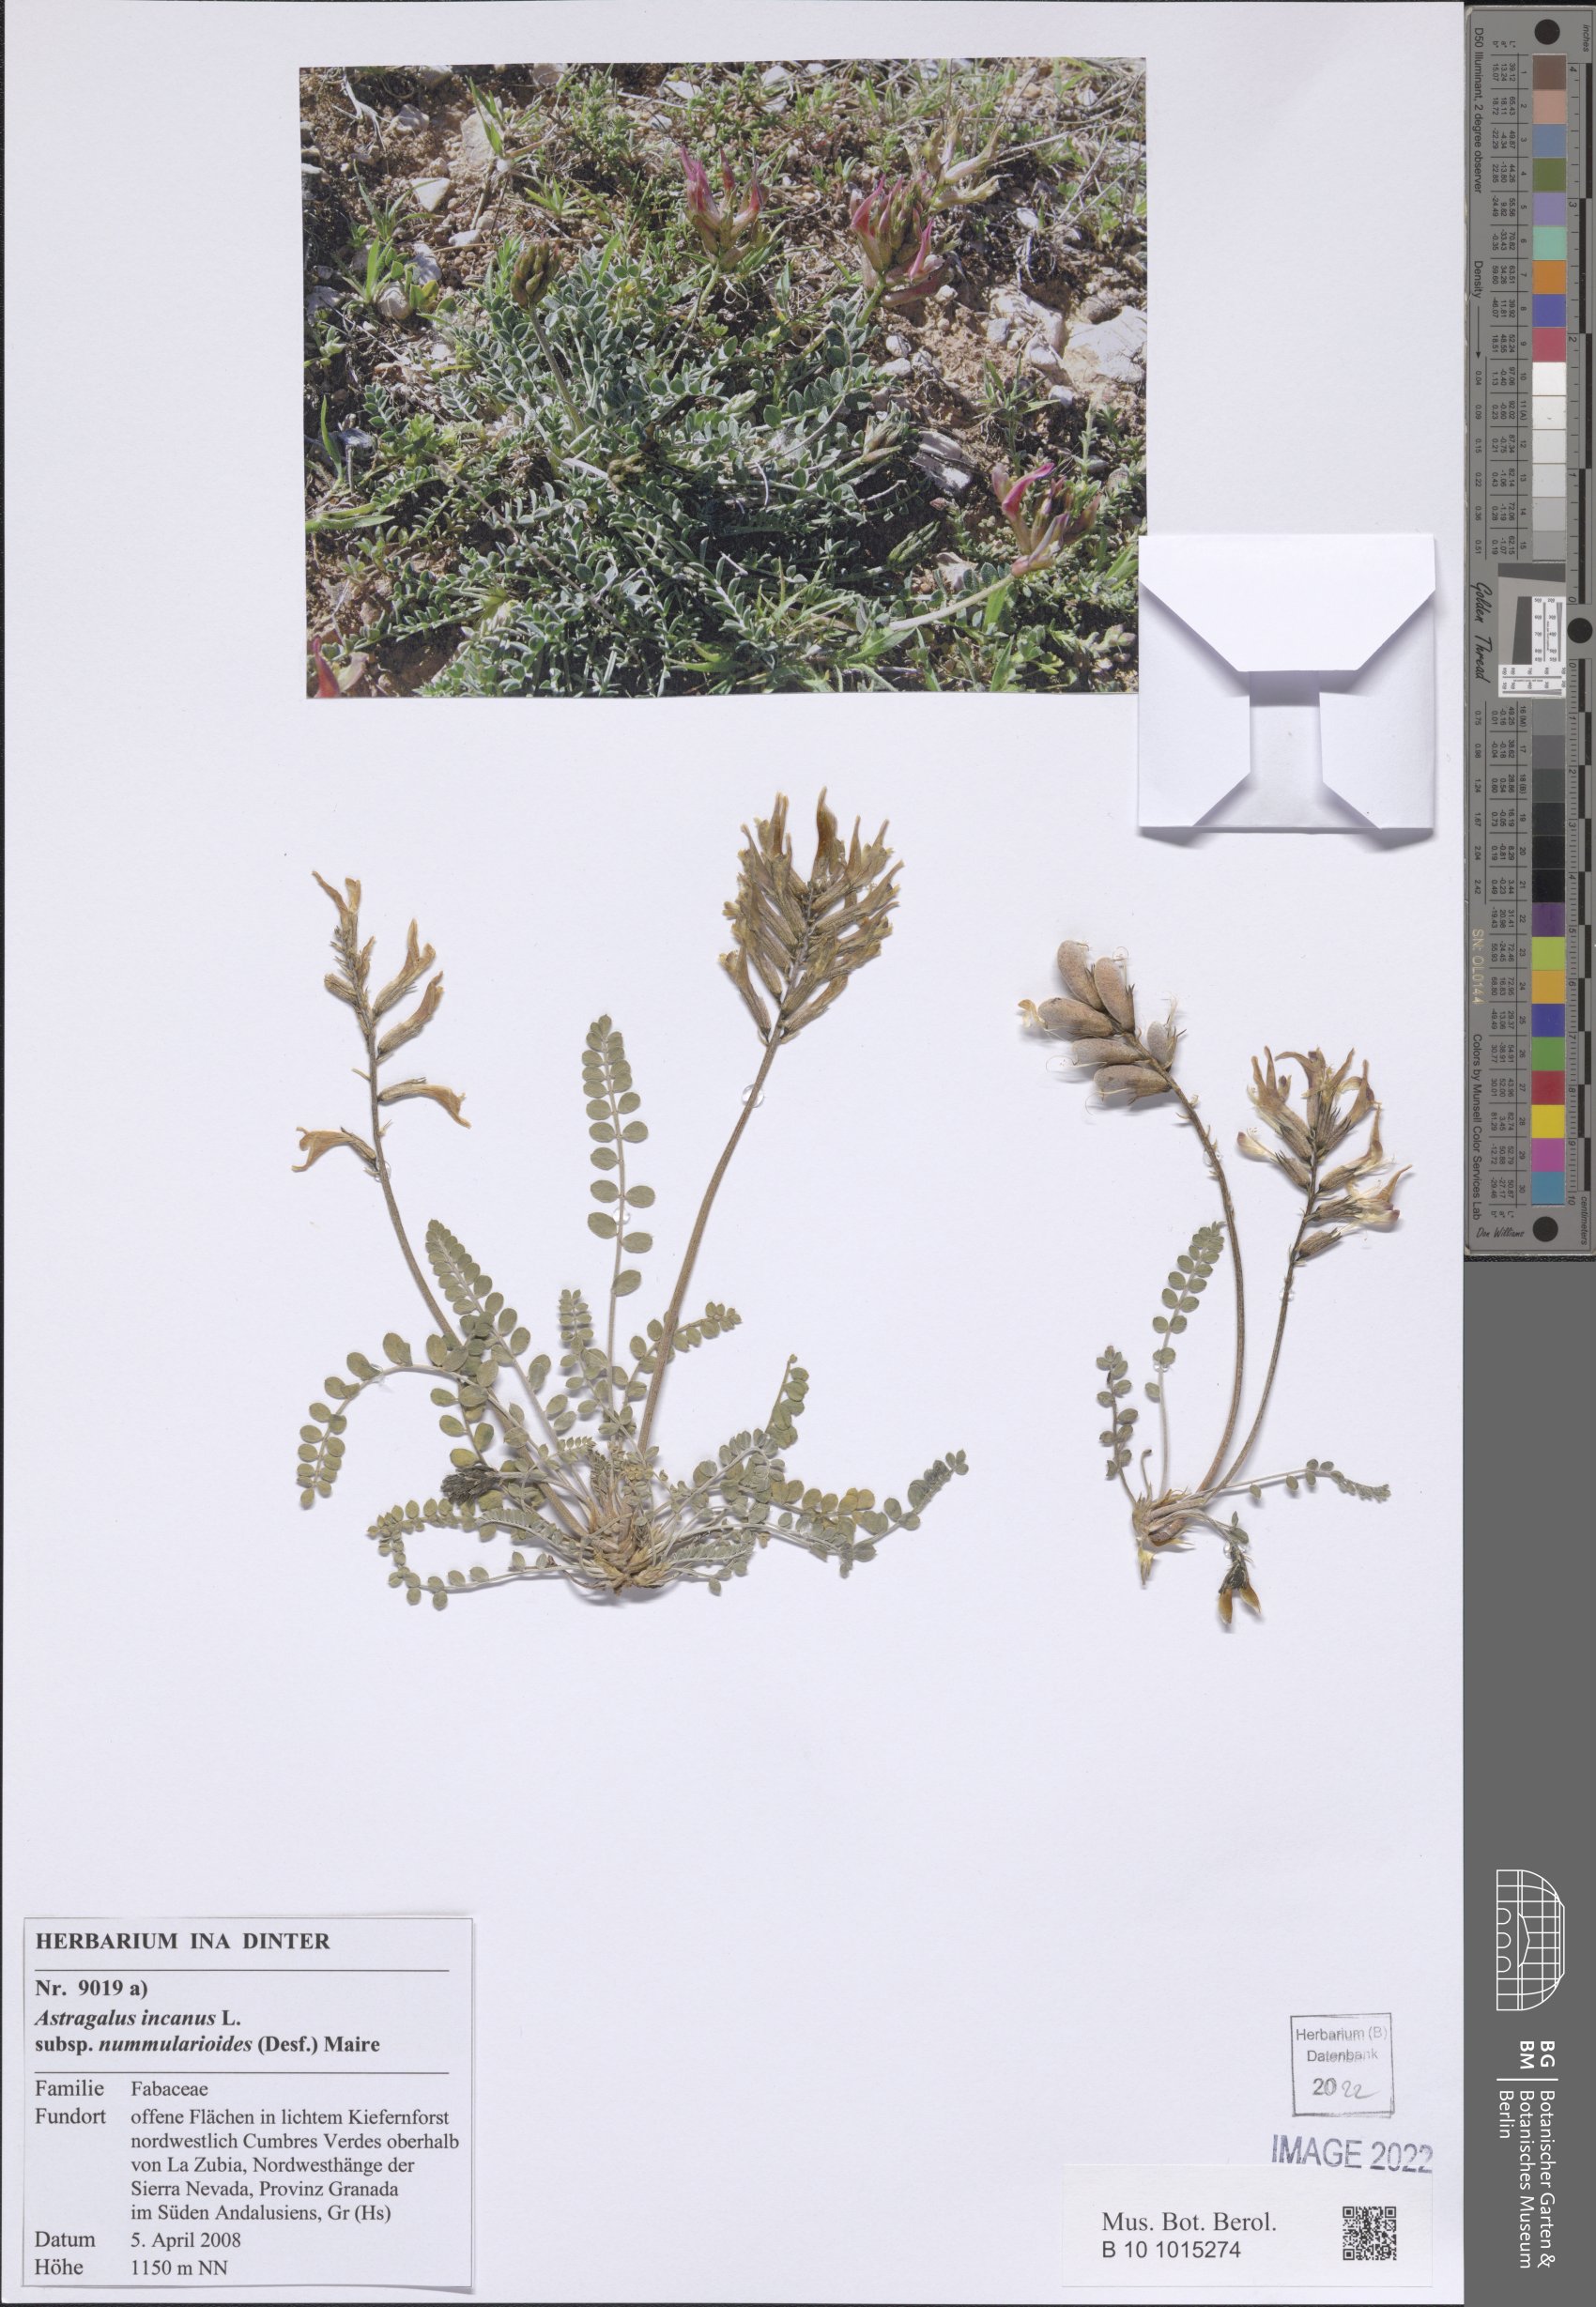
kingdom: Plantae
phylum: Tracheophyta
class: Magnoliopsida
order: Fabales
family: Fabaceae
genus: Astragalus
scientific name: Astragalus incanus
